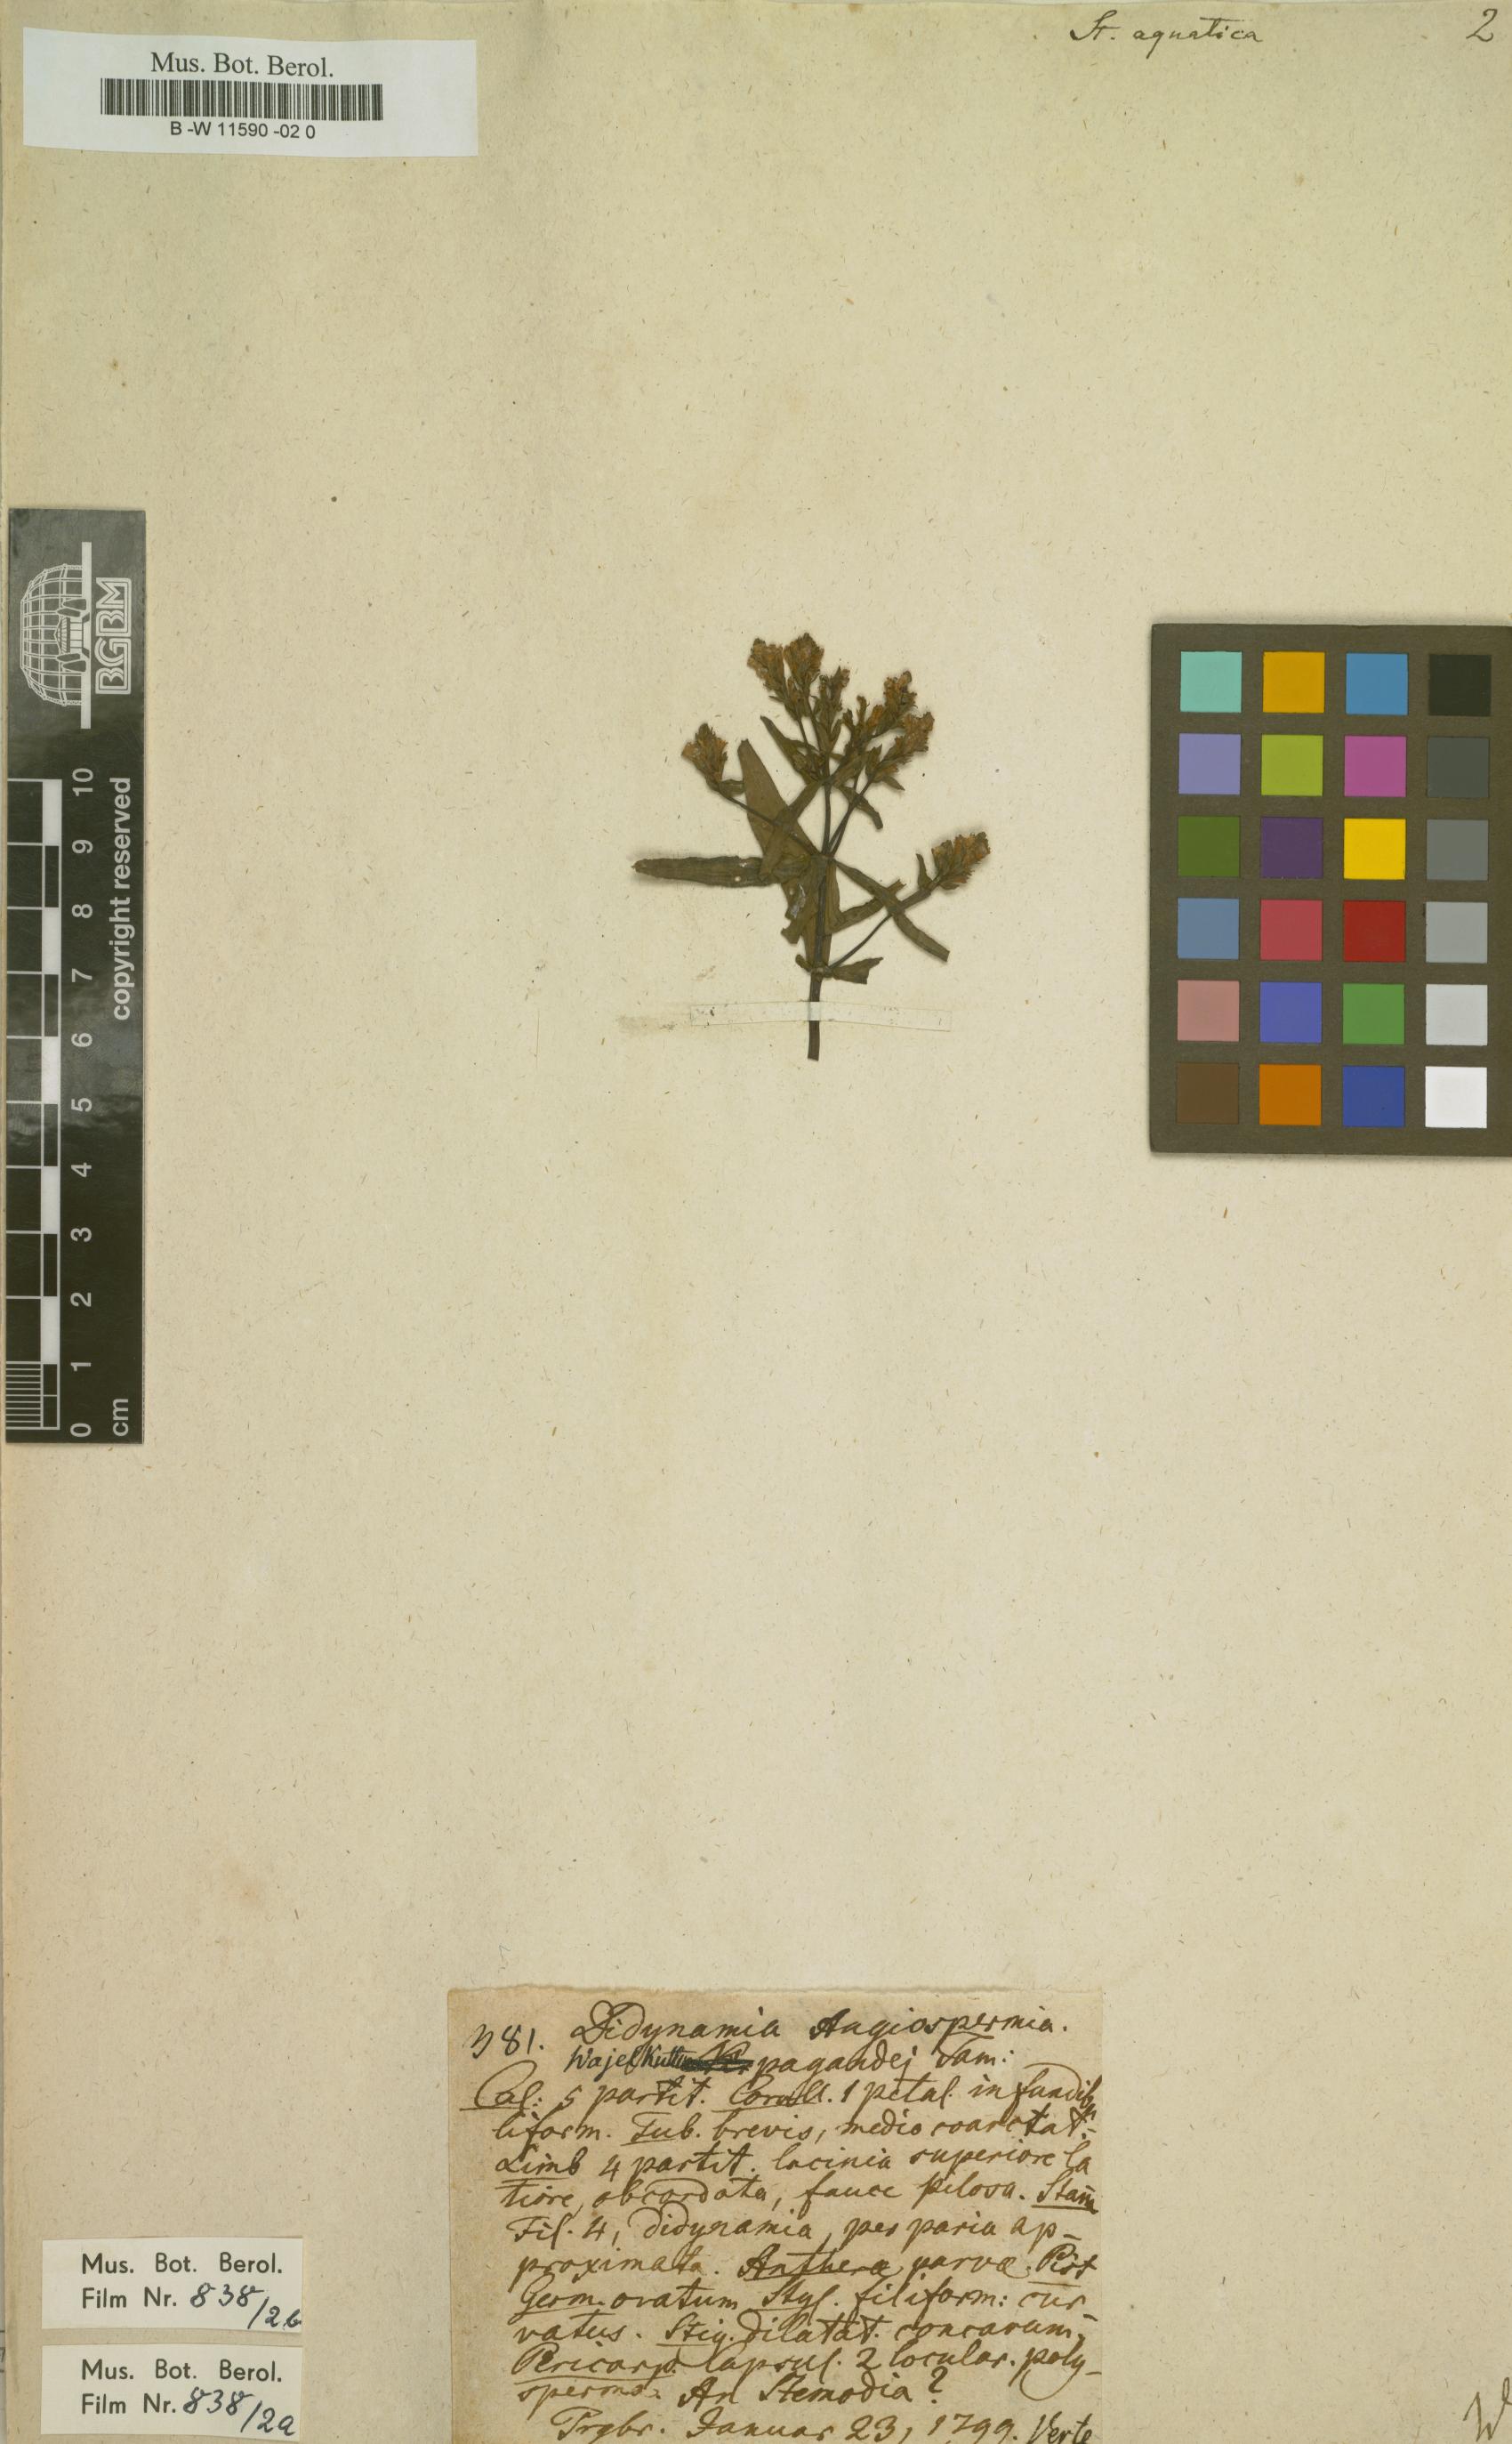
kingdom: Plantae
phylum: Tracheophyta
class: Magnoliopsida
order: Lamiales
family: Plantaginaceae
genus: Limnophila
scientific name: Limnophila polystachya
